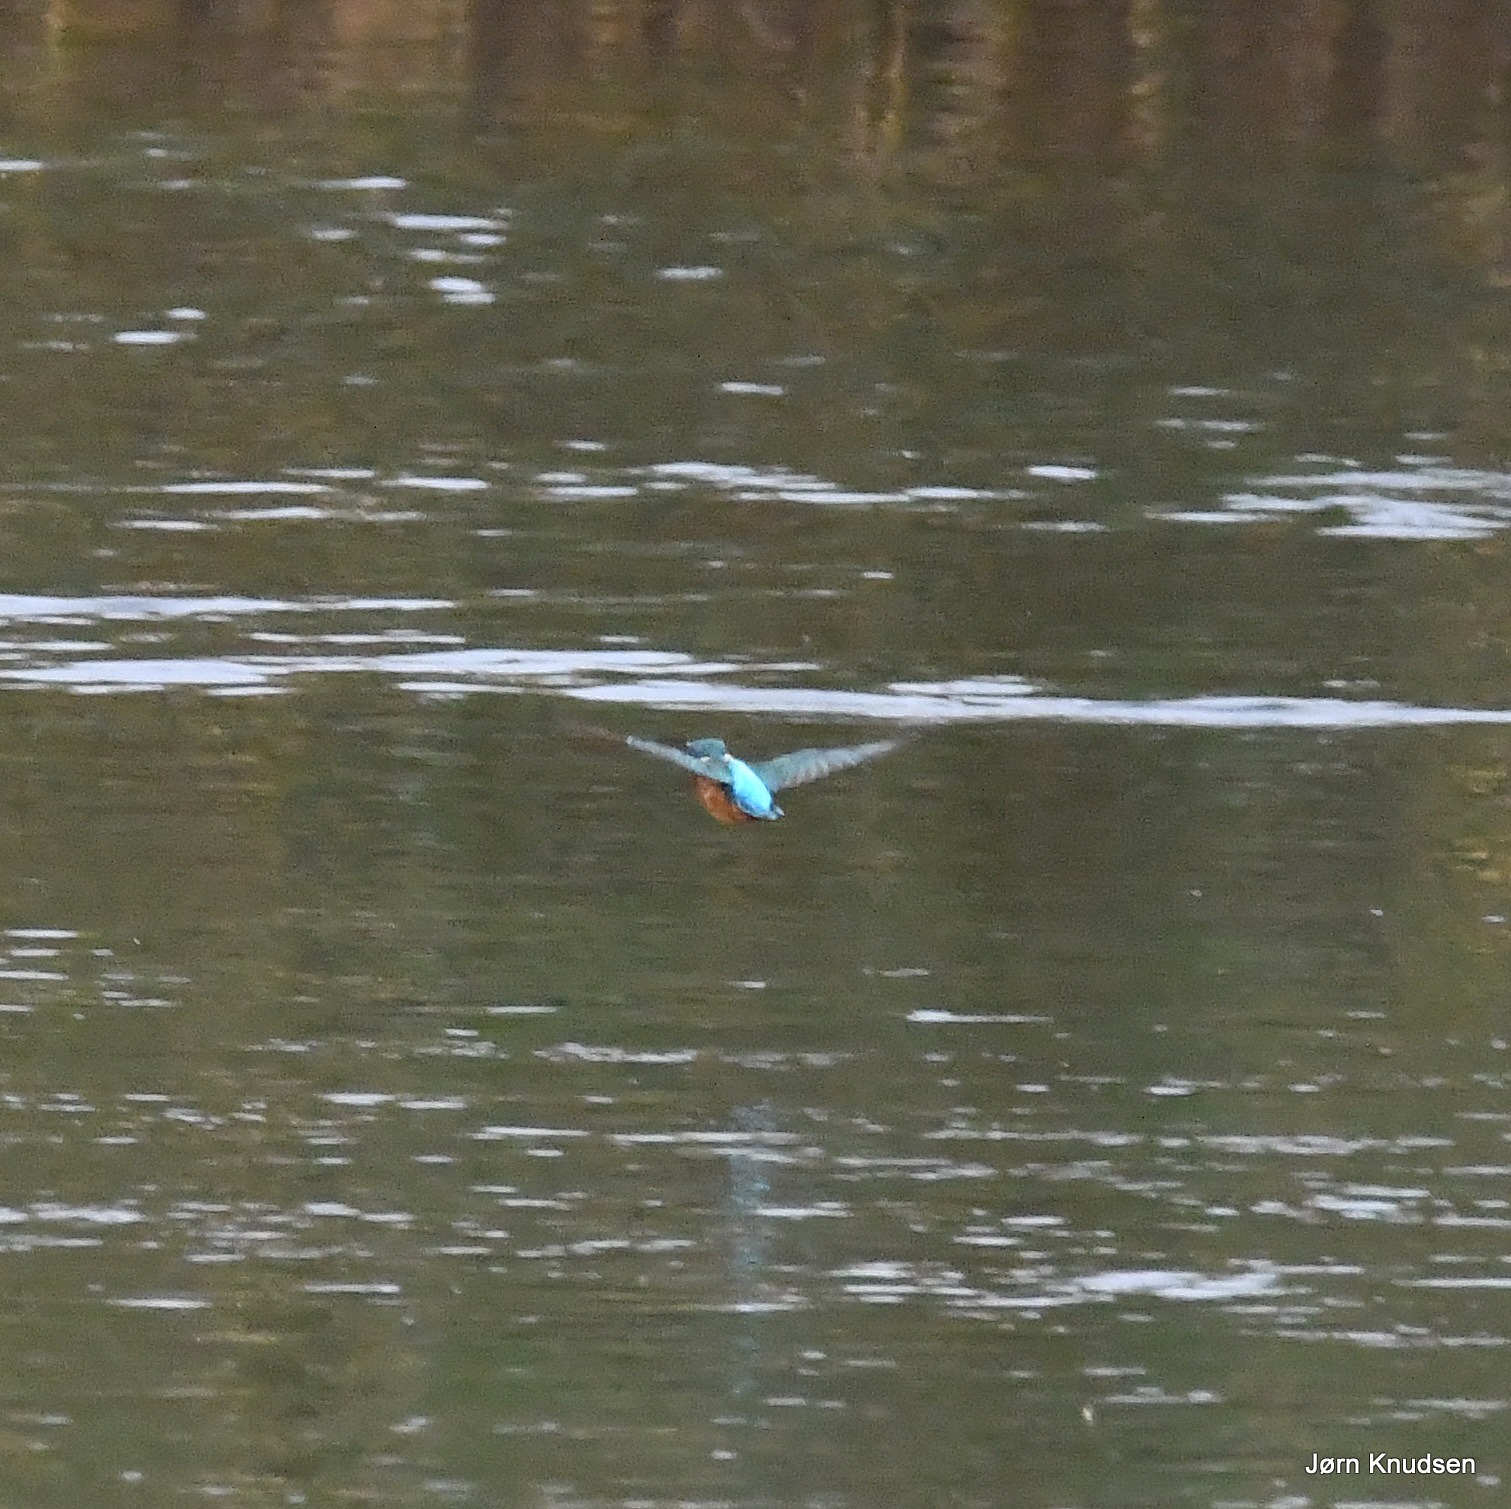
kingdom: Animalia
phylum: Chordata
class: Aves
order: Coraciiformes
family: Alcedinidae
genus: Alcedo
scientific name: Alcedo atthis
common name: Isfugl
